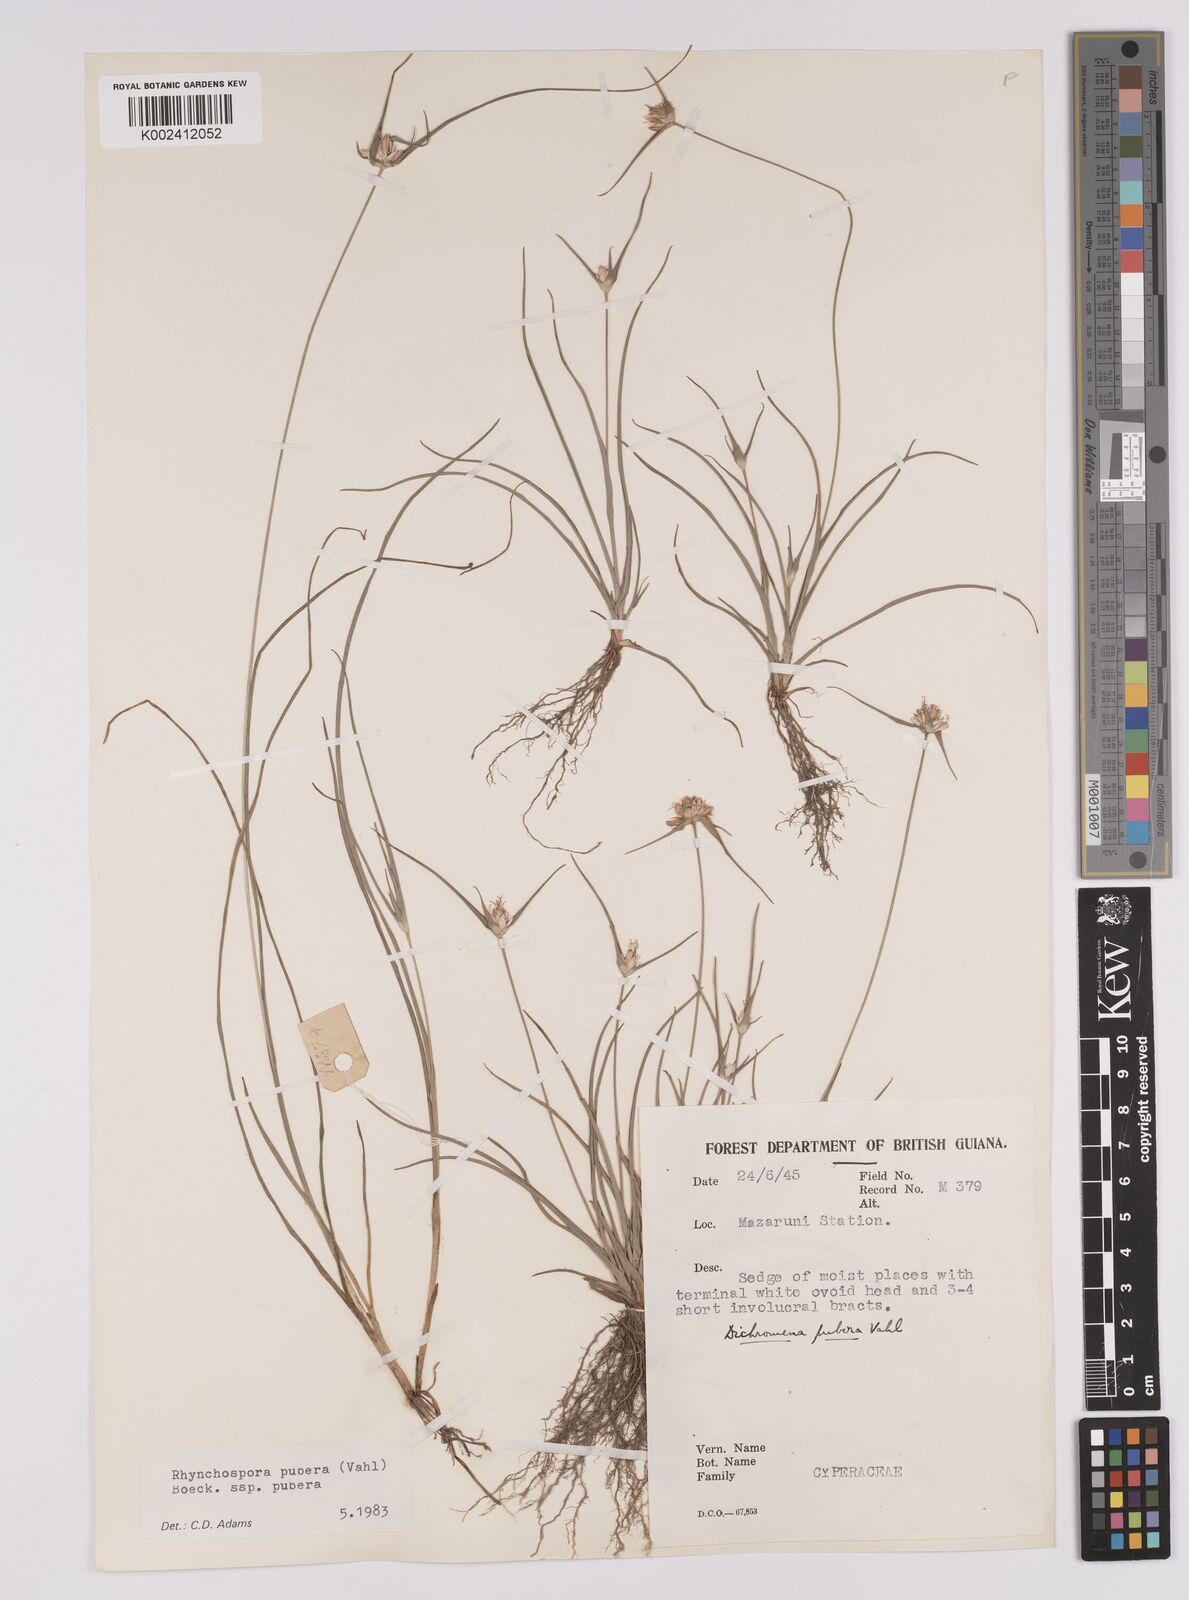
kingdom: Plantae
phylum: Tracheophyta
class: Liliopsida
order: Poales
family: Cyperaceae
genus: Rhynchospora
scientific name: Rhynchospora pubera
